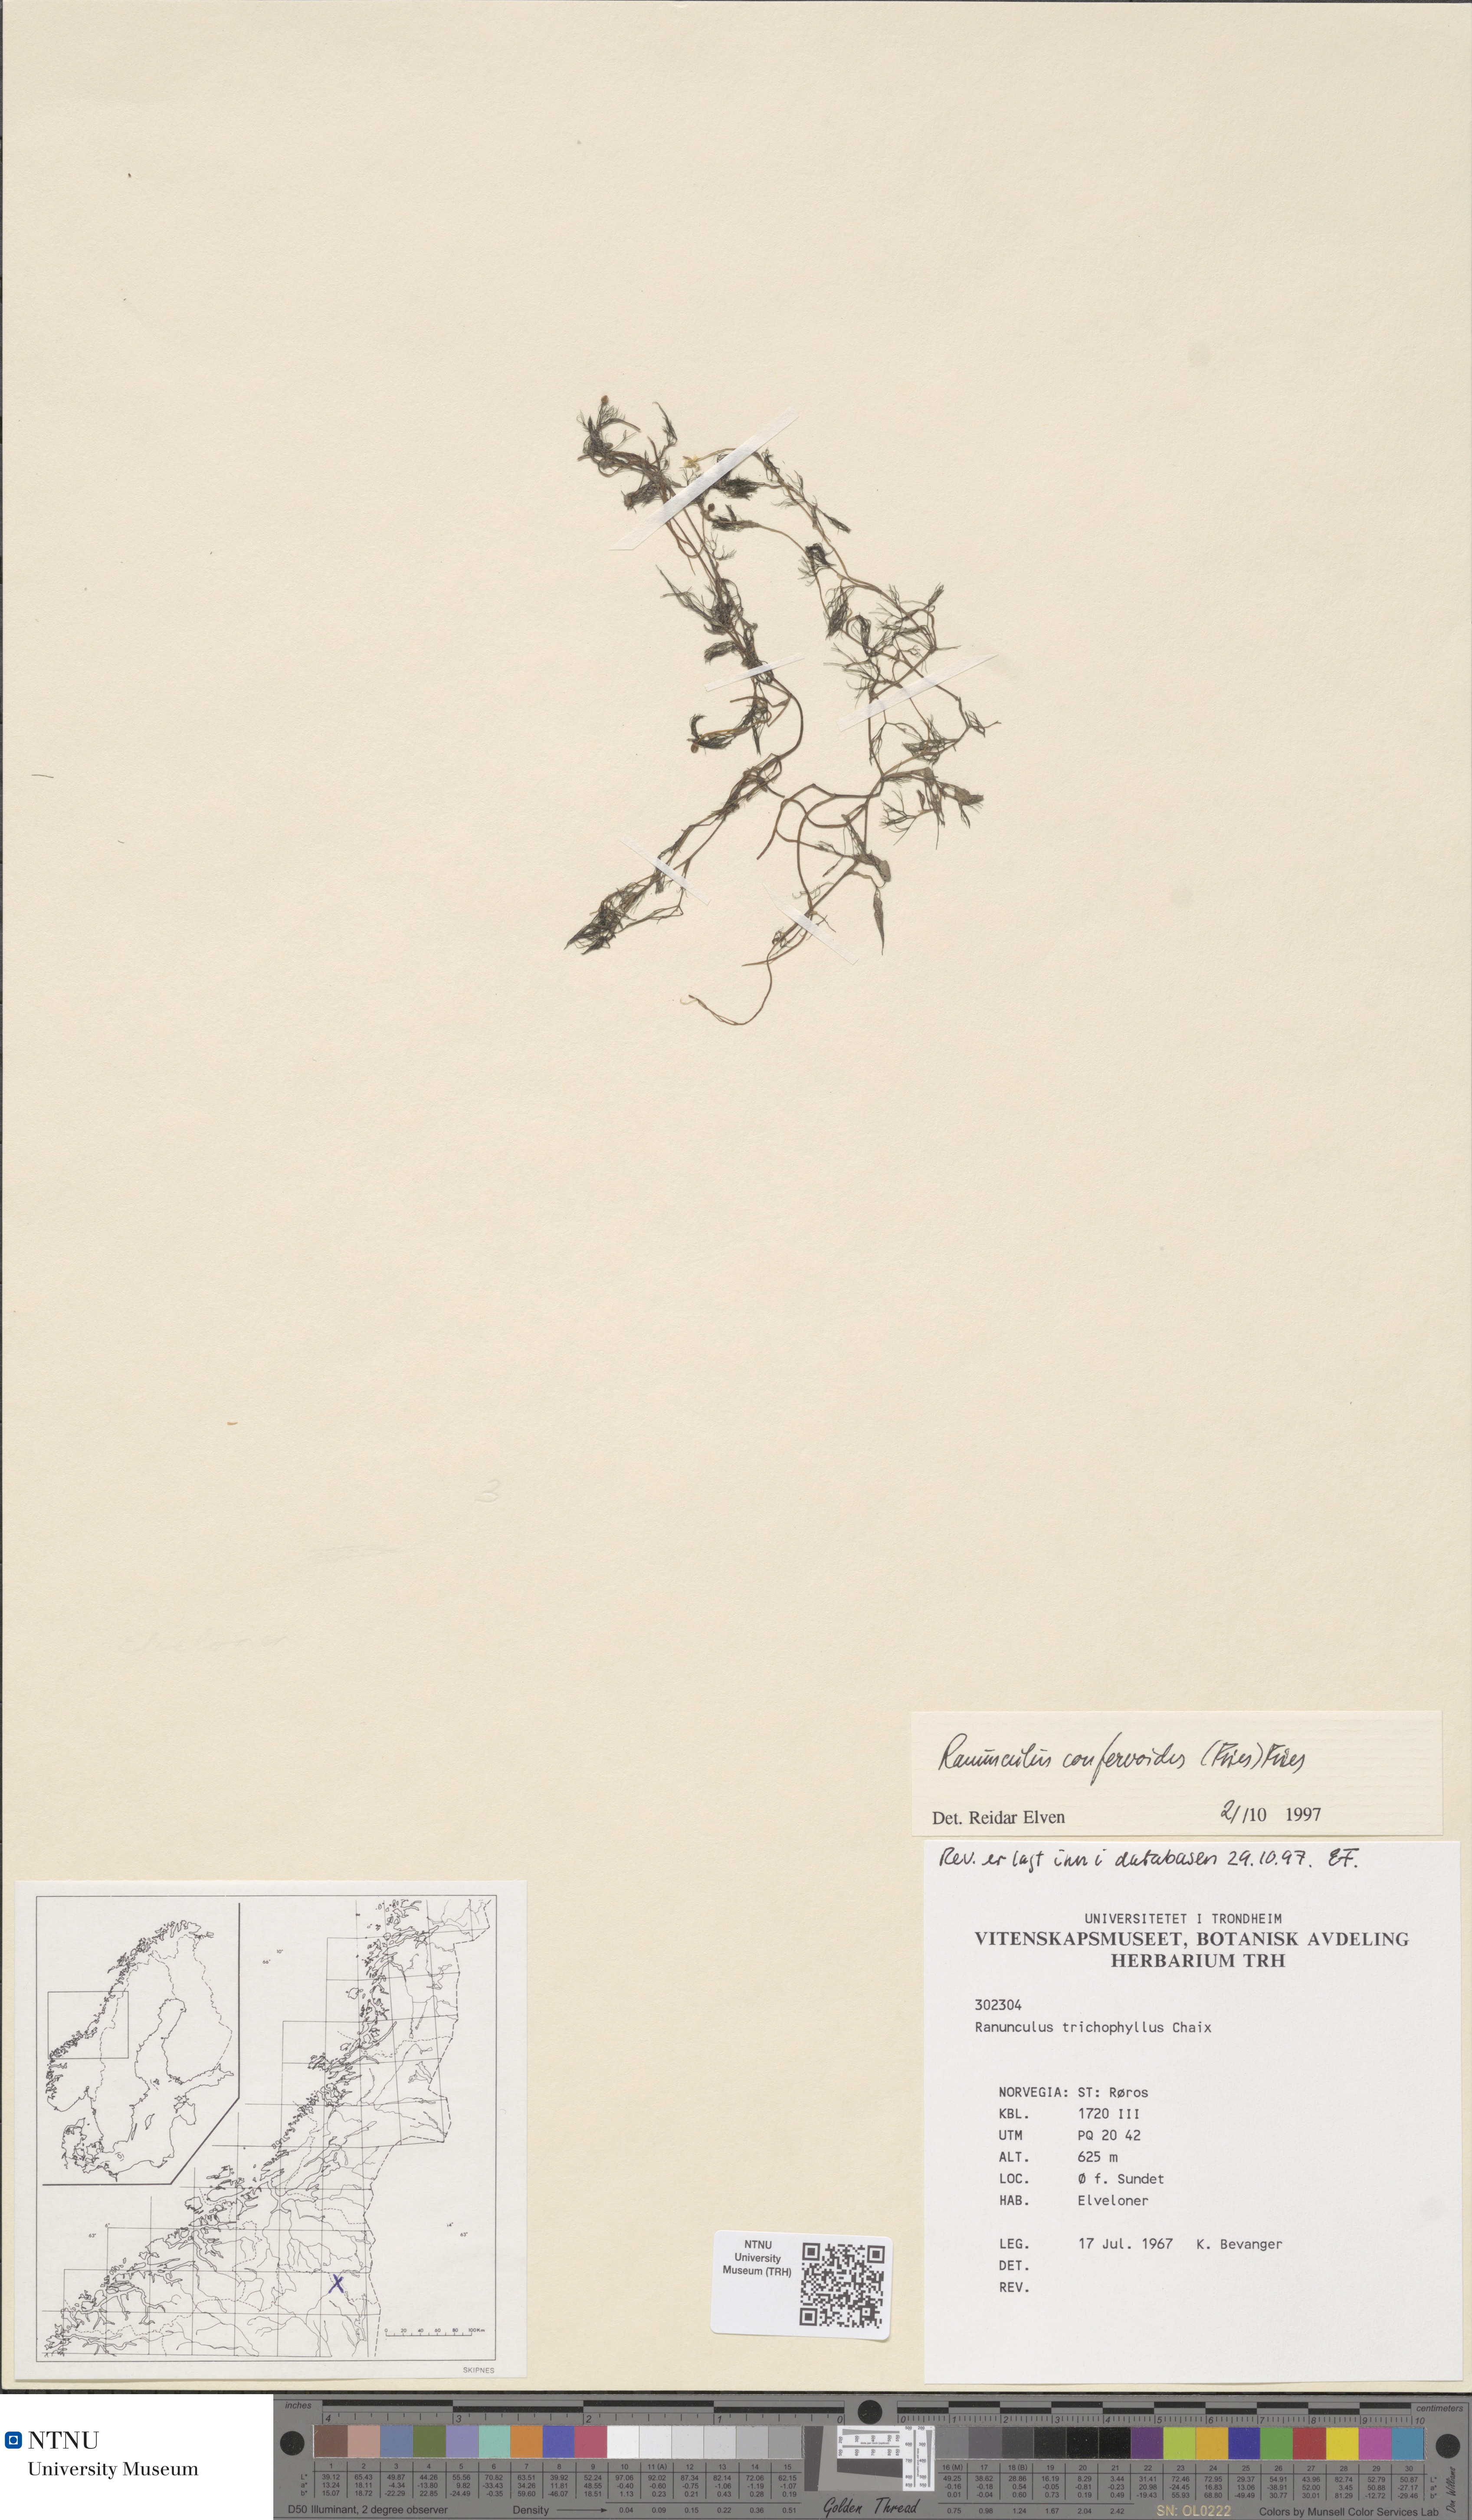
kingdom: Plantae
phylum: Tracheophyta
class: Magnoliopsida
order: Ranunculales
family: Ranunculaceae
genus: Ranunculus
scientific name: Ranunculus confervoides
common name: Delicate buttercup
